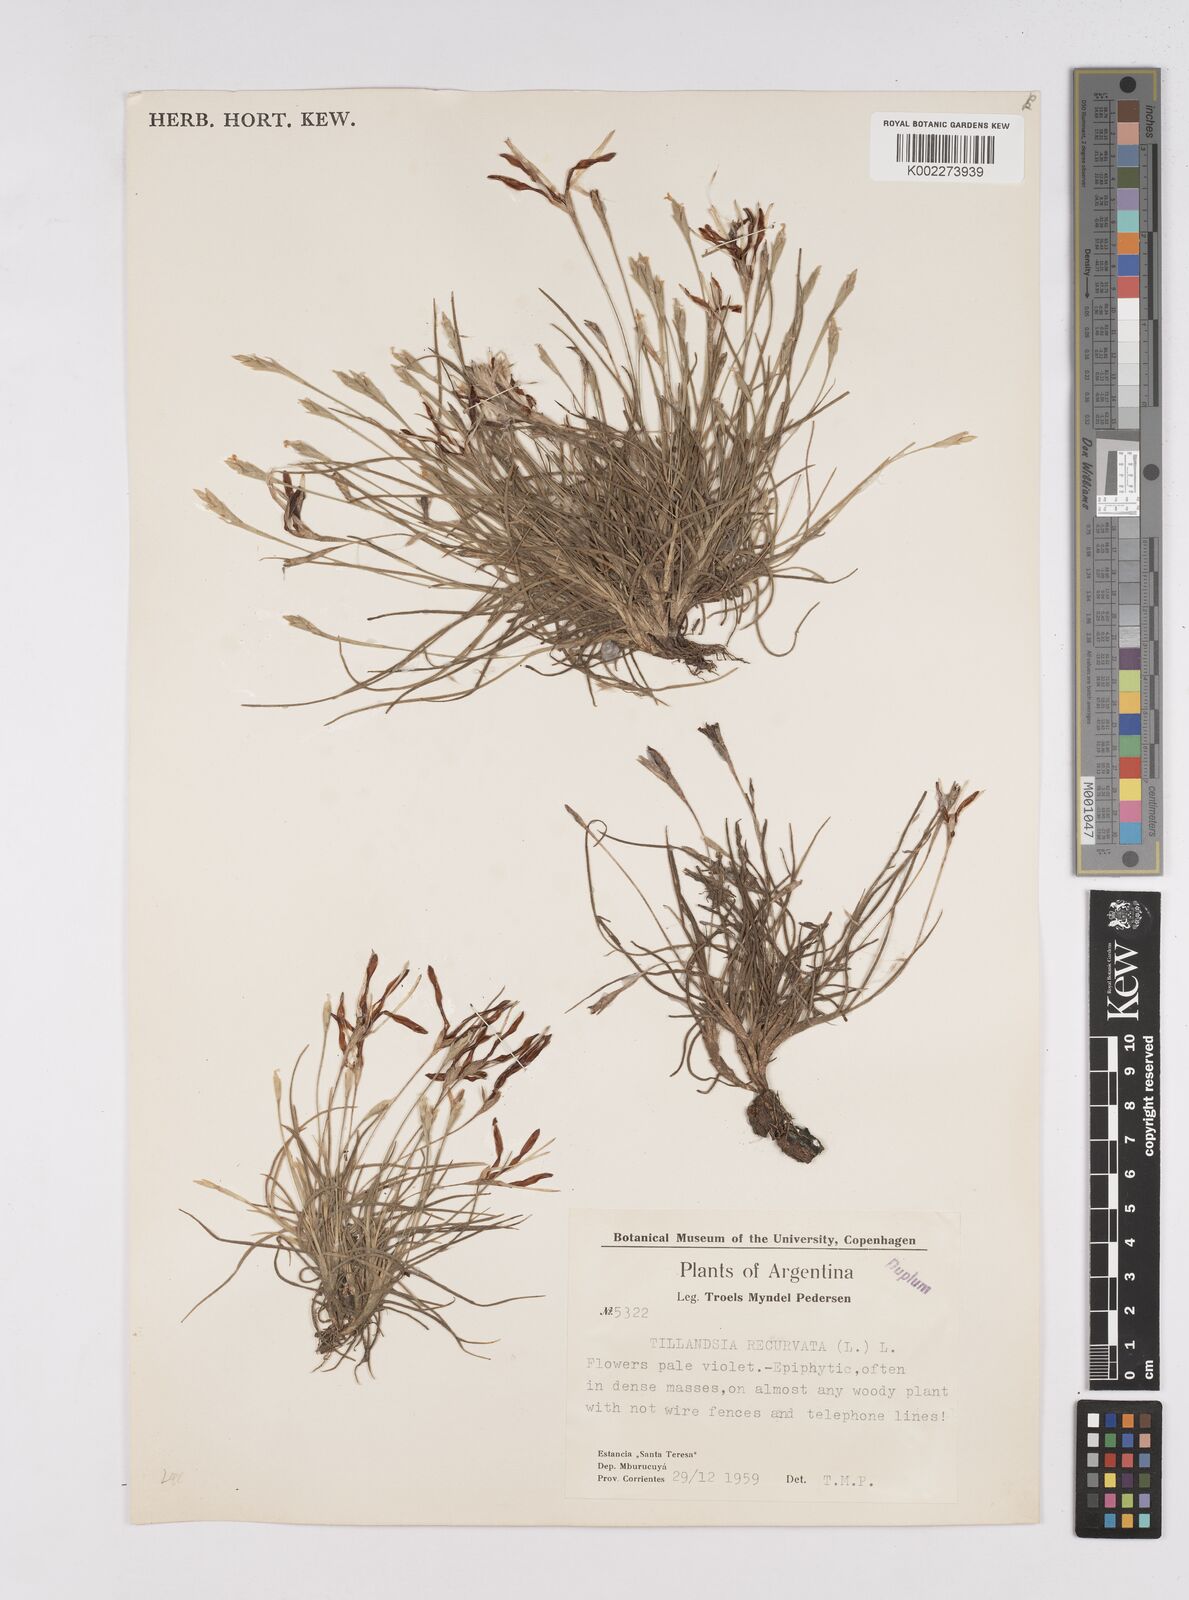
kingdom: Plantae
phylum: Tracheophyta
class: Liliopsida
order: Poales
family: Bromeliaceae
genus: Tillandsia
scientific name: Tillandsia recurvata
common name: Small ballmoss
